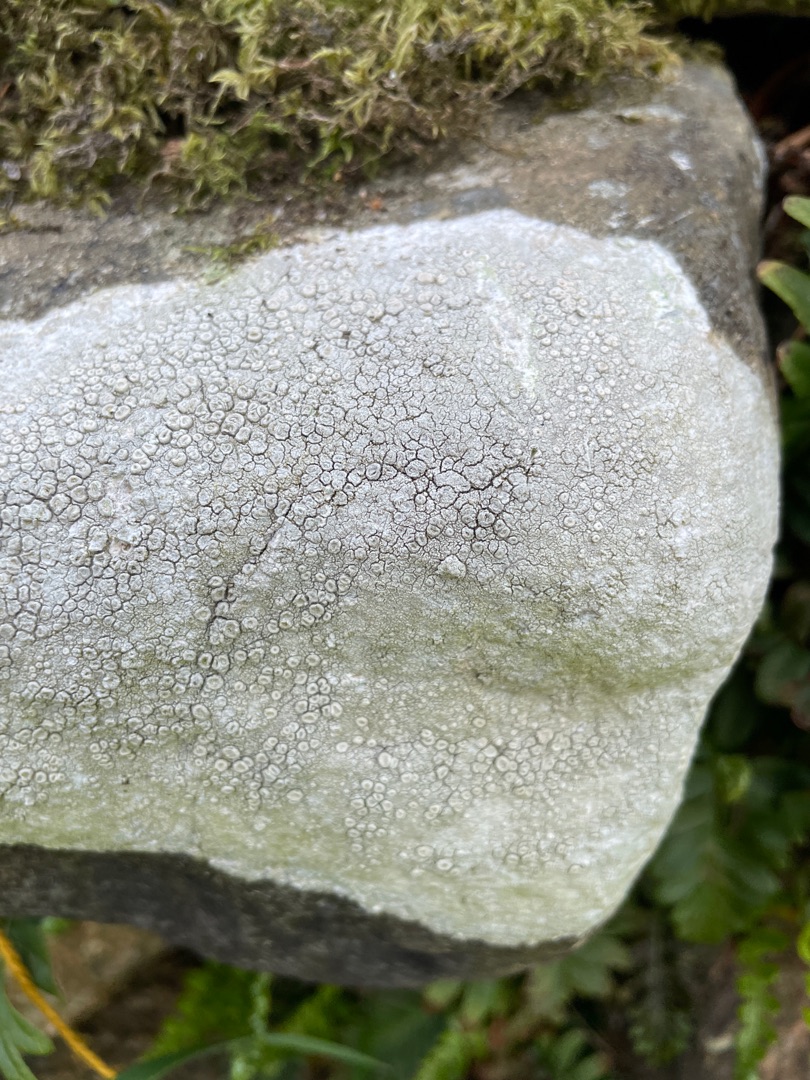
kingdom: Fungi
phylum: Ascomycota
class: Lecanoromycetes
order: Lecanorales
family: Lecanoraceae
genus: Glaucomaria
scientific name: Glaucomaria rupicola
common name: Stengærde-kantskivelav
